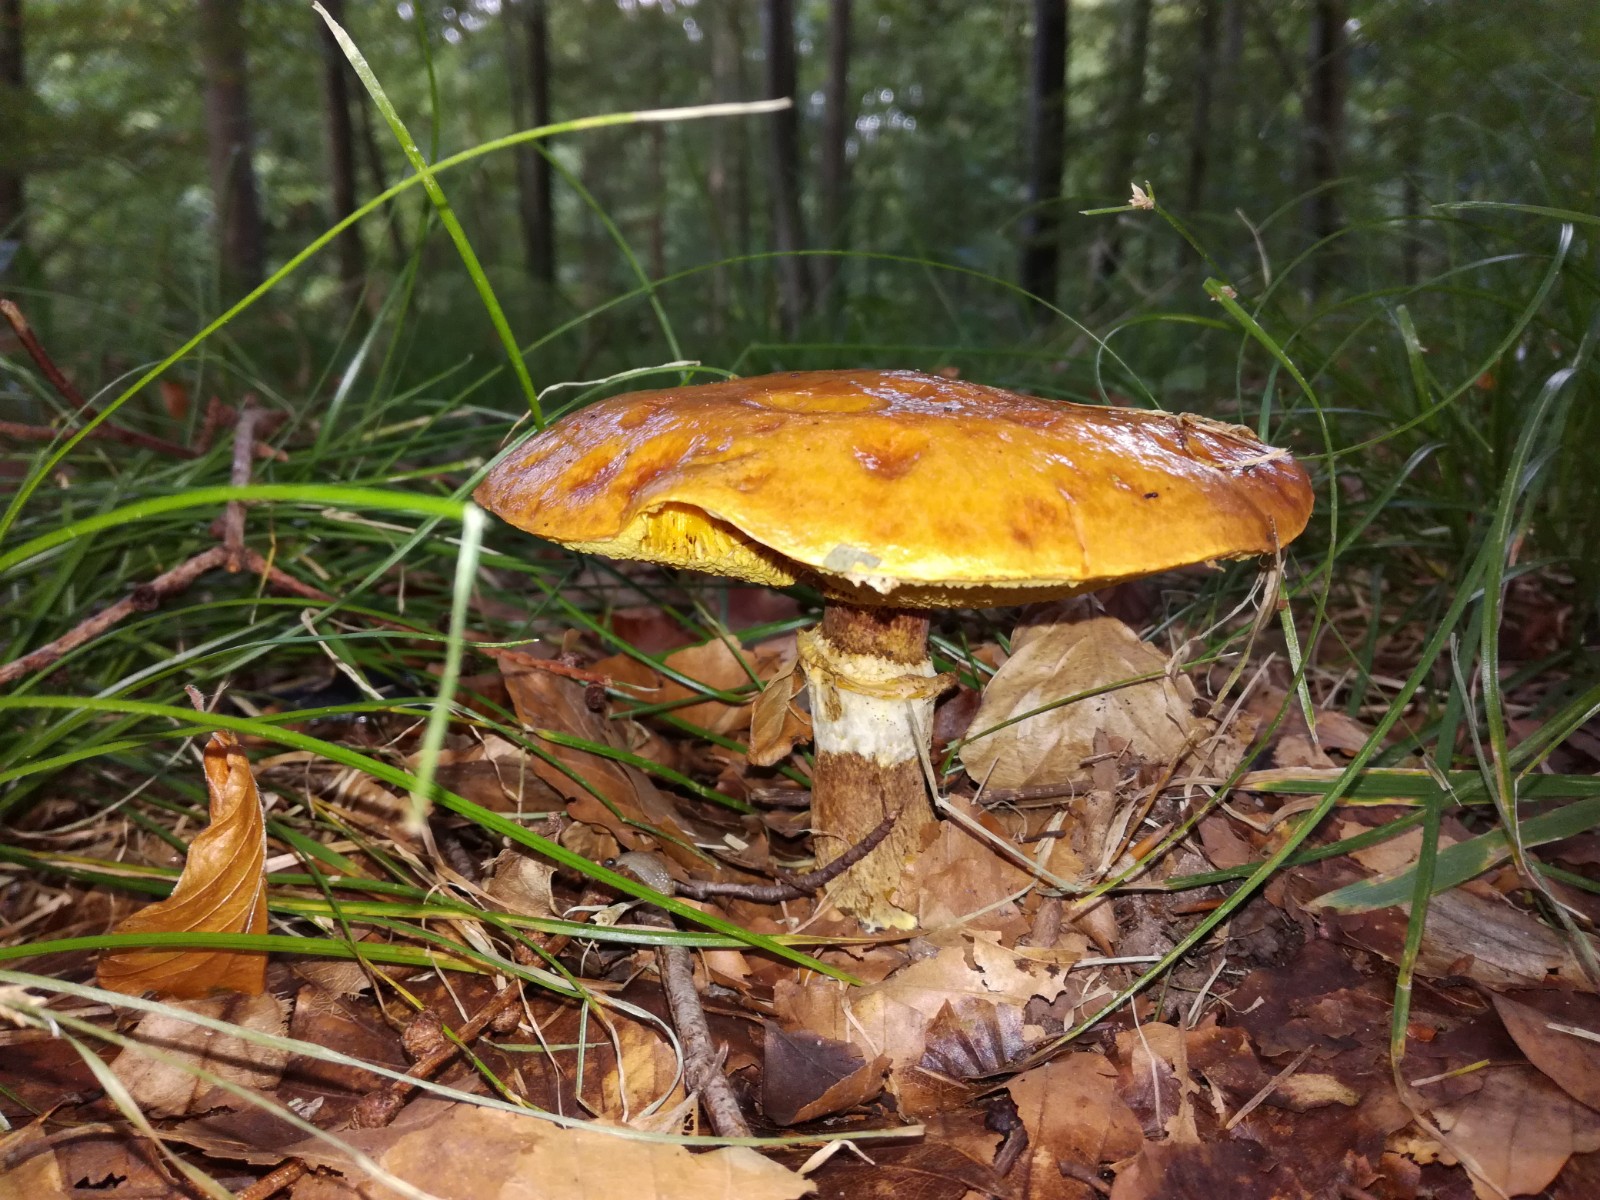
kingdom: Fungi
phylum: Basidiomycota
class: Agaricomycetes
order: Boletales
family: Suillaceae
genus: Suillus
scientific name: Suillus grevillei
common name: lærke-slimrørhat
